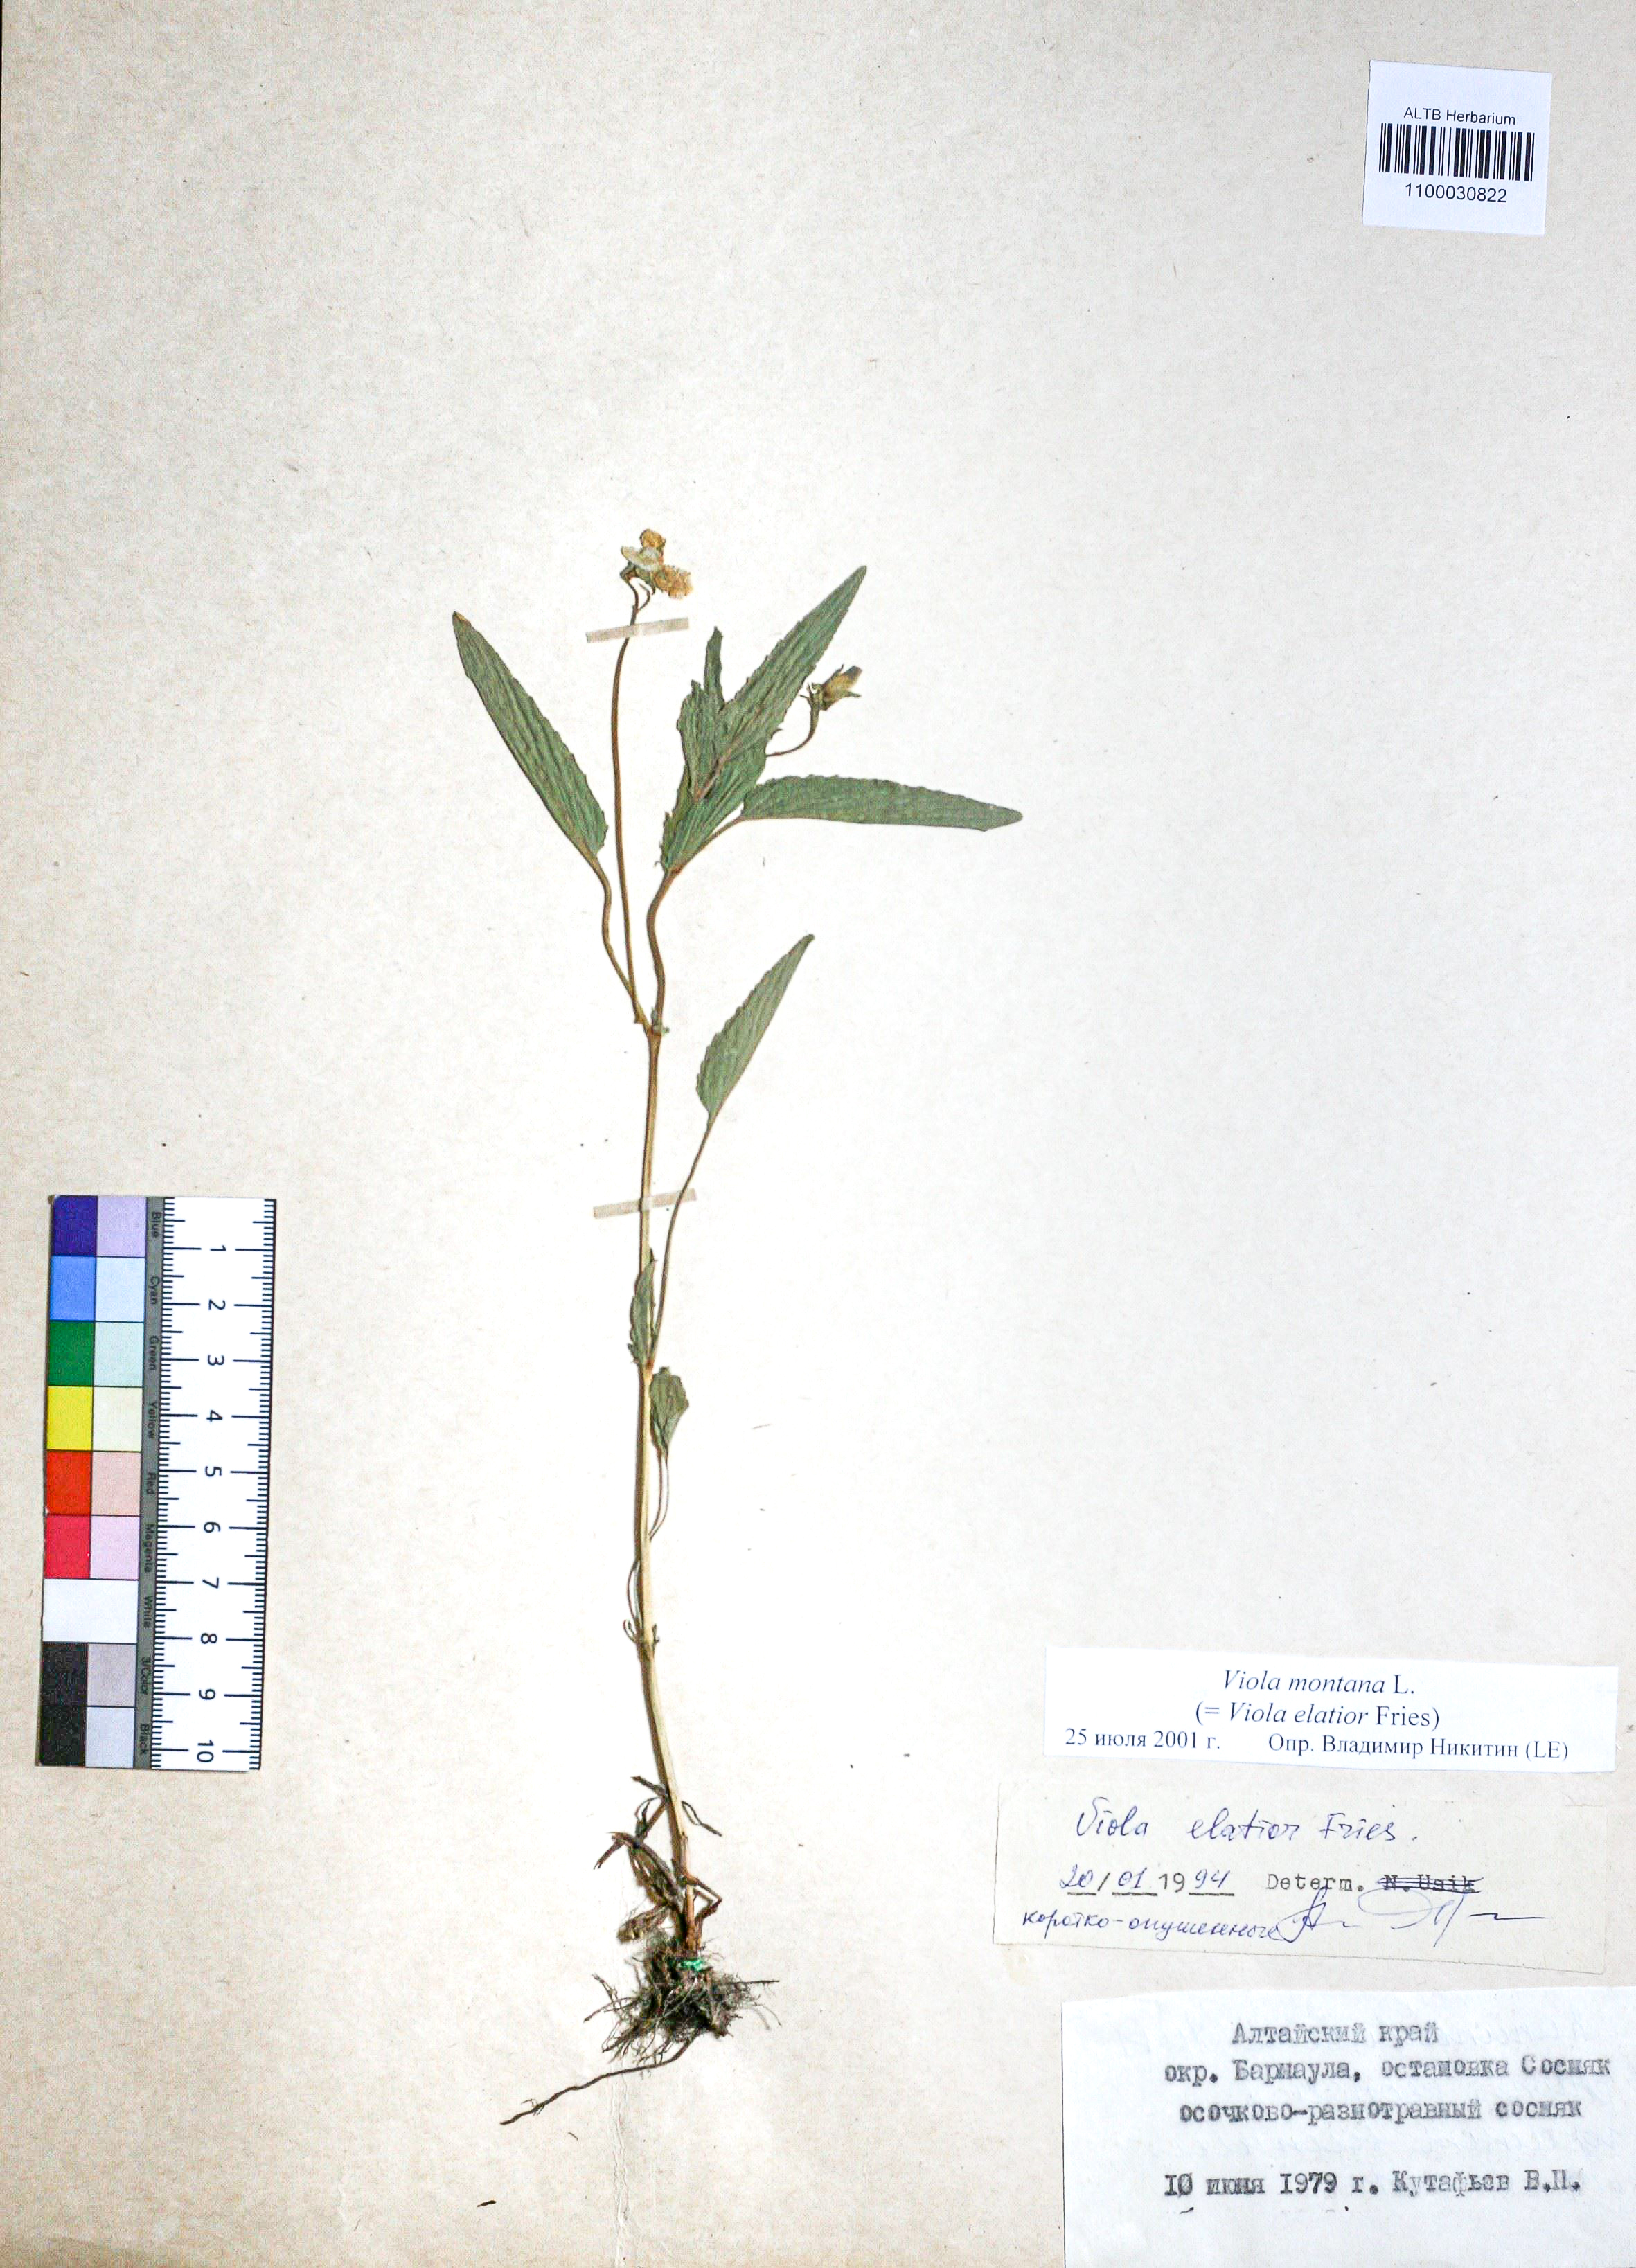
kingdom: Plantae
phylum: Tracheophyta
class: Magnoliopsida
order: Malpighiales
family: Violaceae
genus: Viola
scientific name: Viola ruppii
